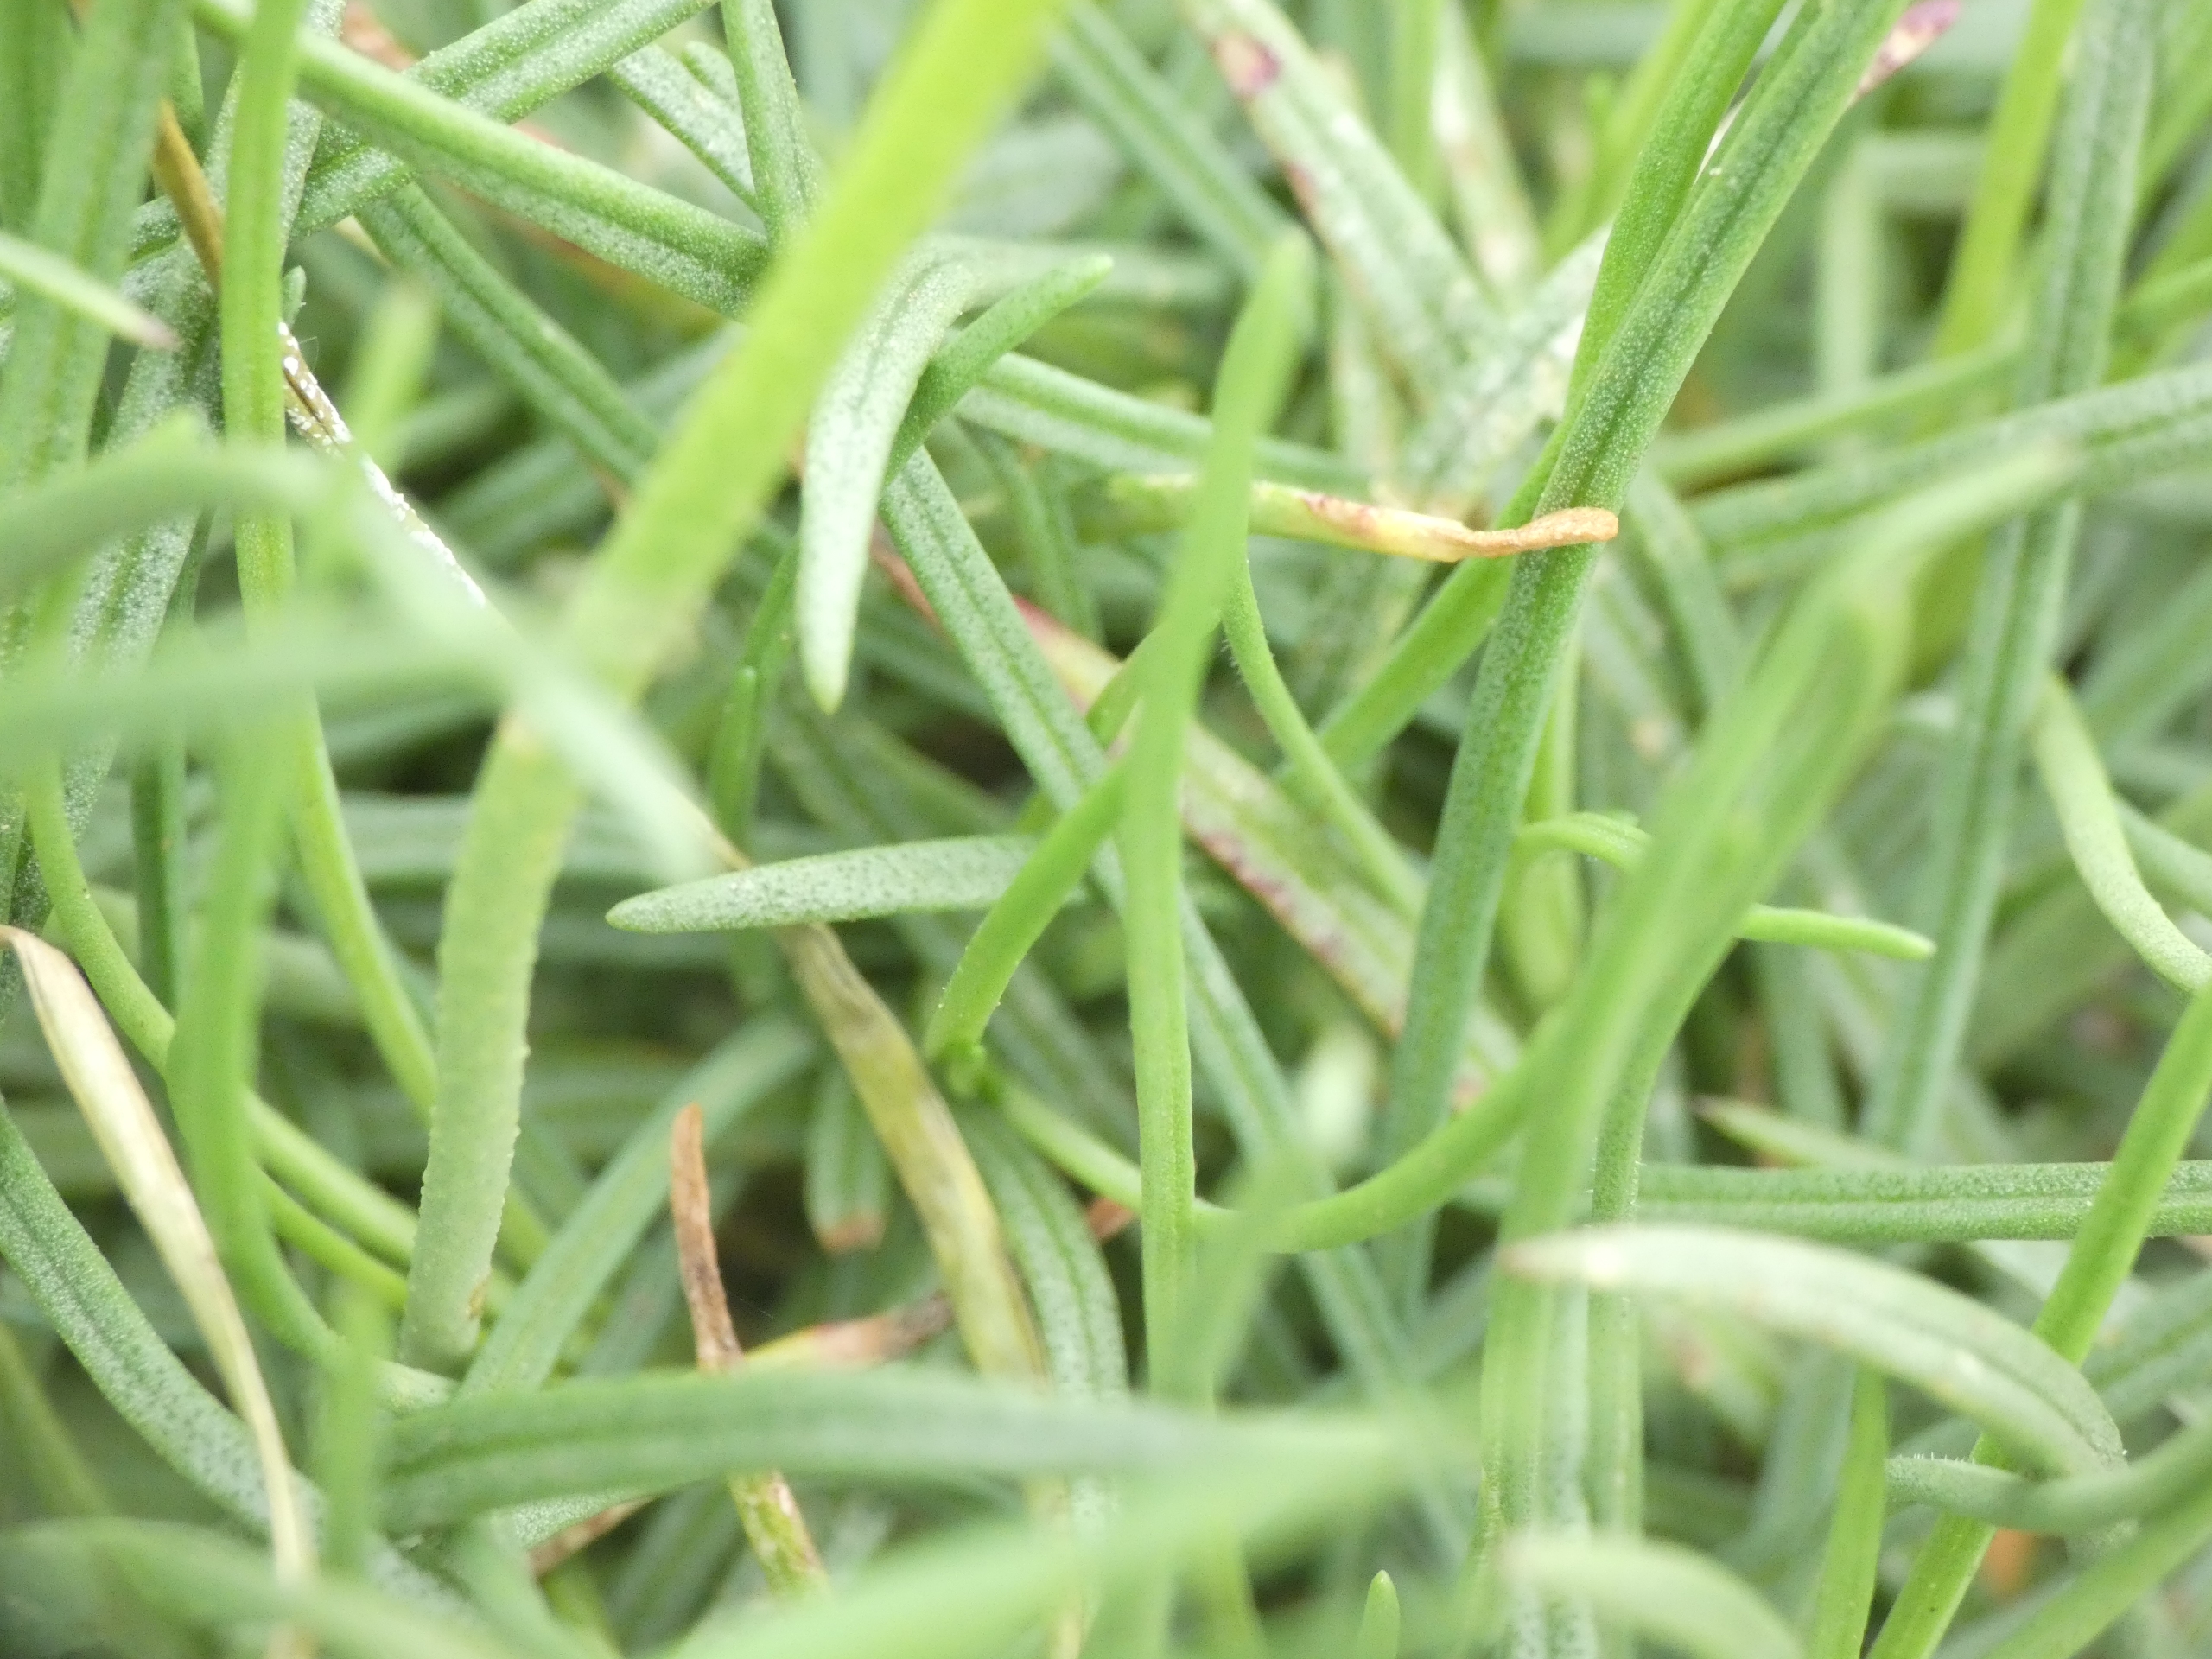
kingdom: Plantae
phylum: Tracheophyta
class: Magnoliopsida
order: Caryophyllales
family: Plumbaginaceae
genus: Armeria
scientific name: Armeria maritima
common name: Engelskgræs
